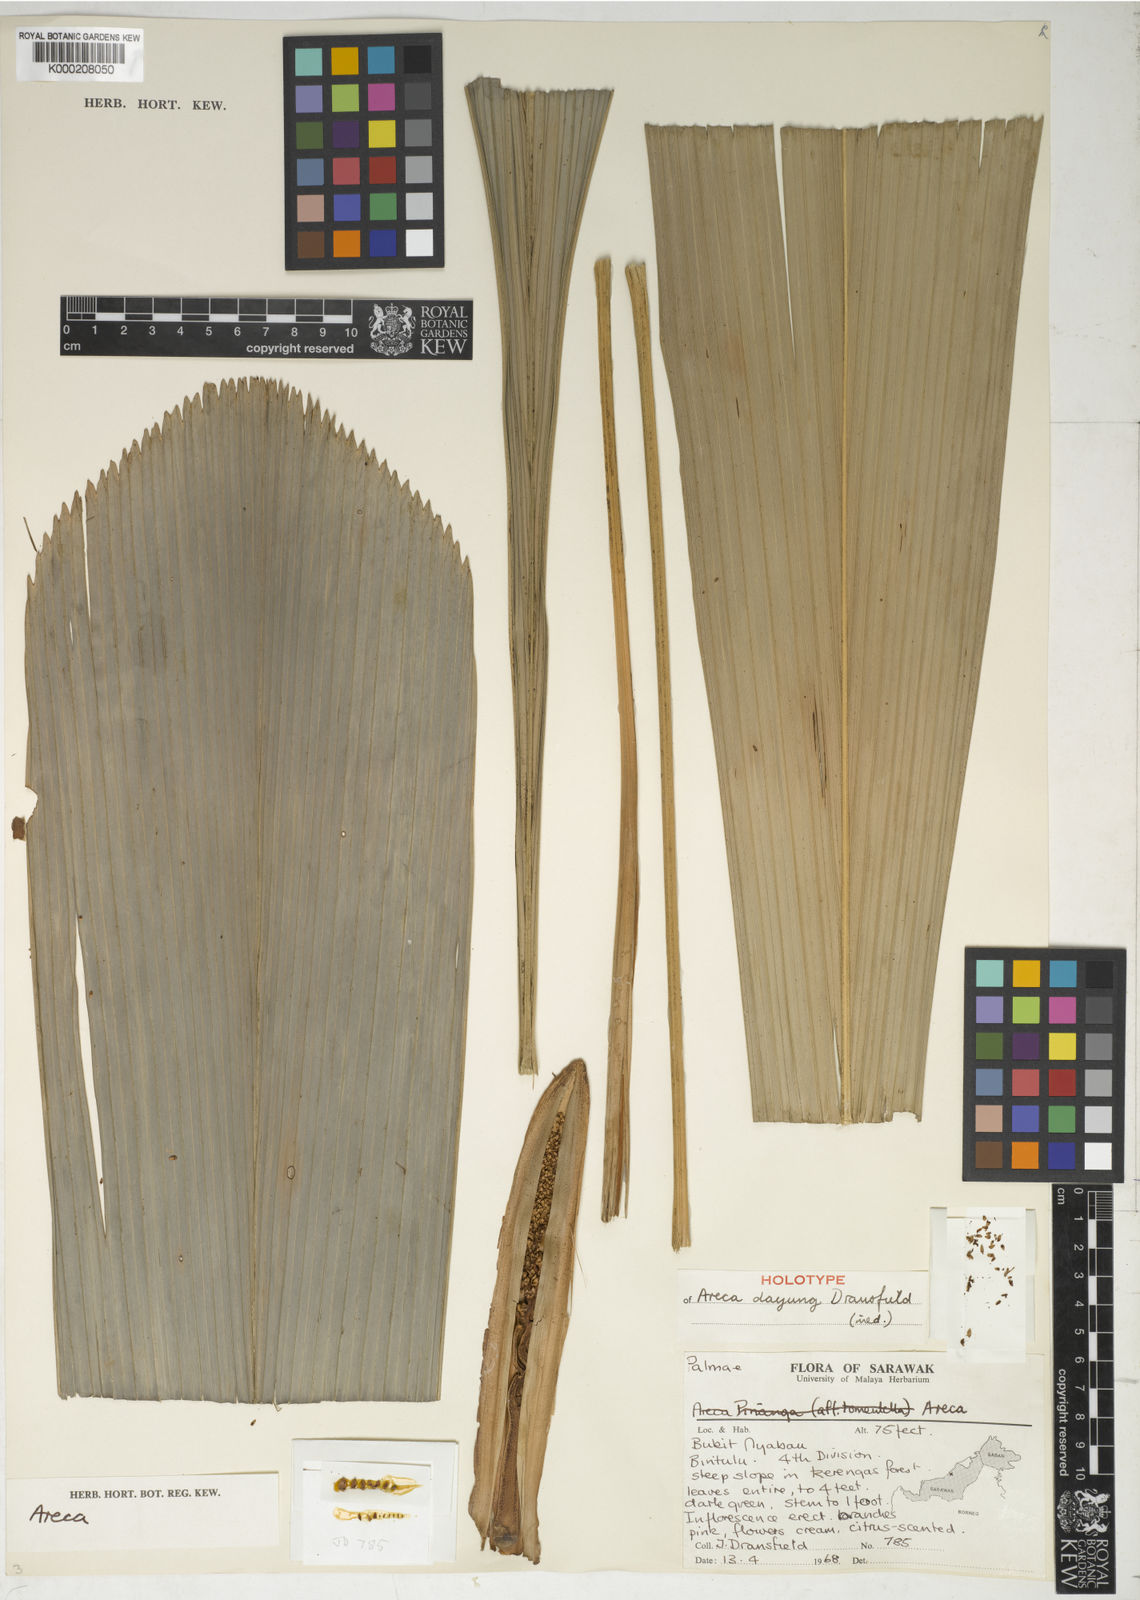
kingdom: Plantae
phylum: Tracheophyta
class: Liliopsida
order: Arecales
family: Arecaceae
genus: Areca
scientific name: Areca dayung
